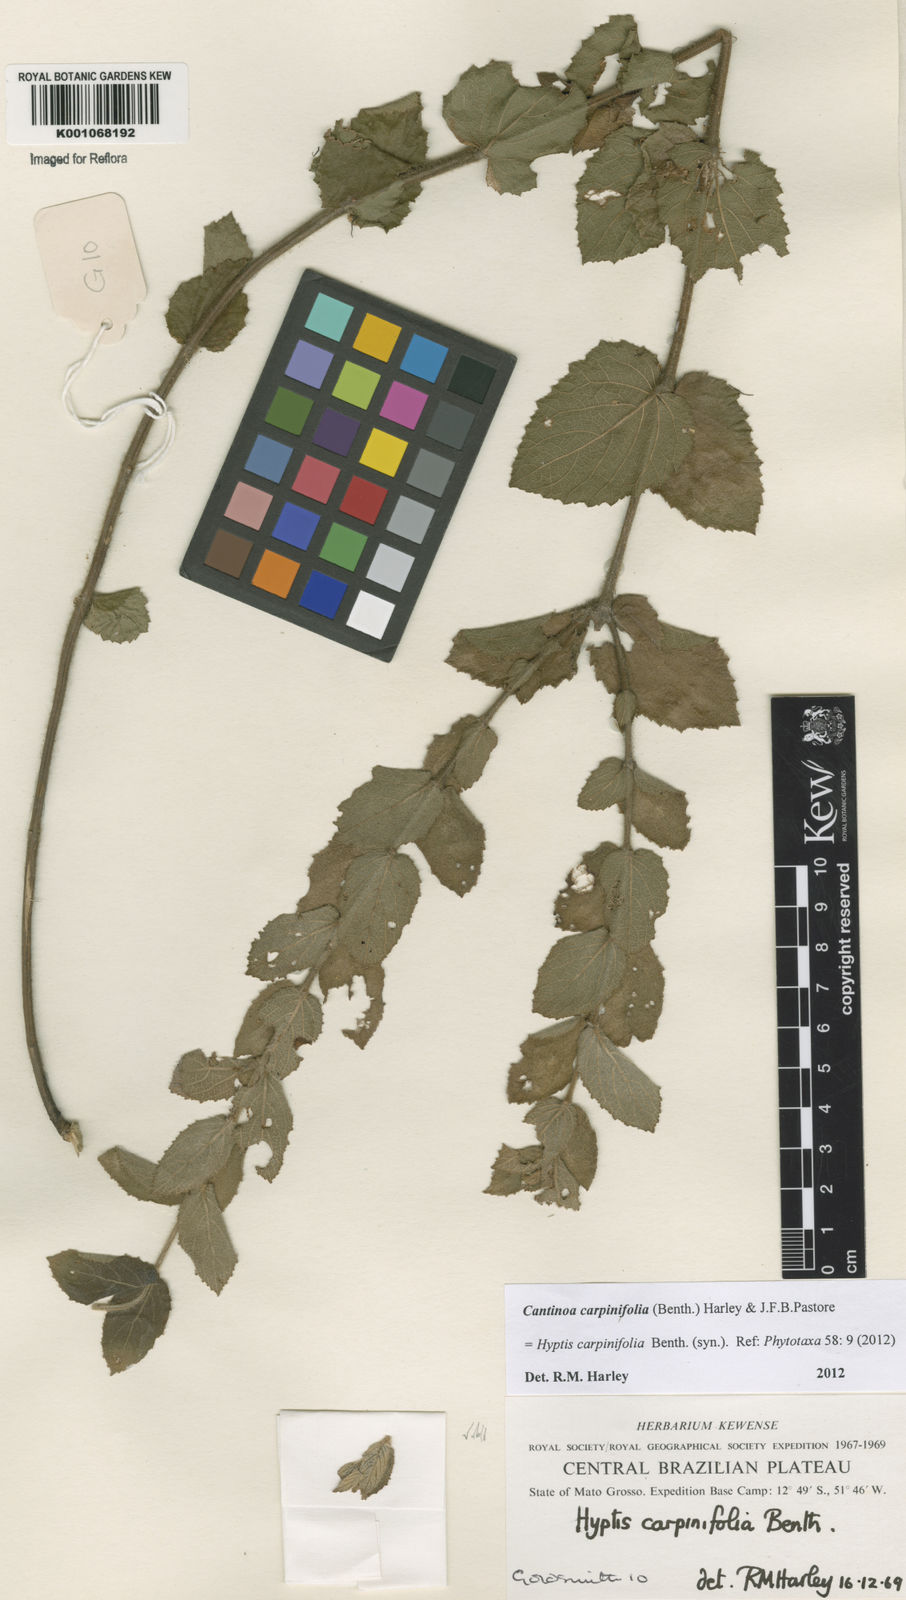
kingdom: Plantae
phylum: Tracheophyta
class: Magnoliopsida
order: Lamiales
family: Lamiaceae
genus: Cantinoa
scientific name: Cantinoa carpinifolia
